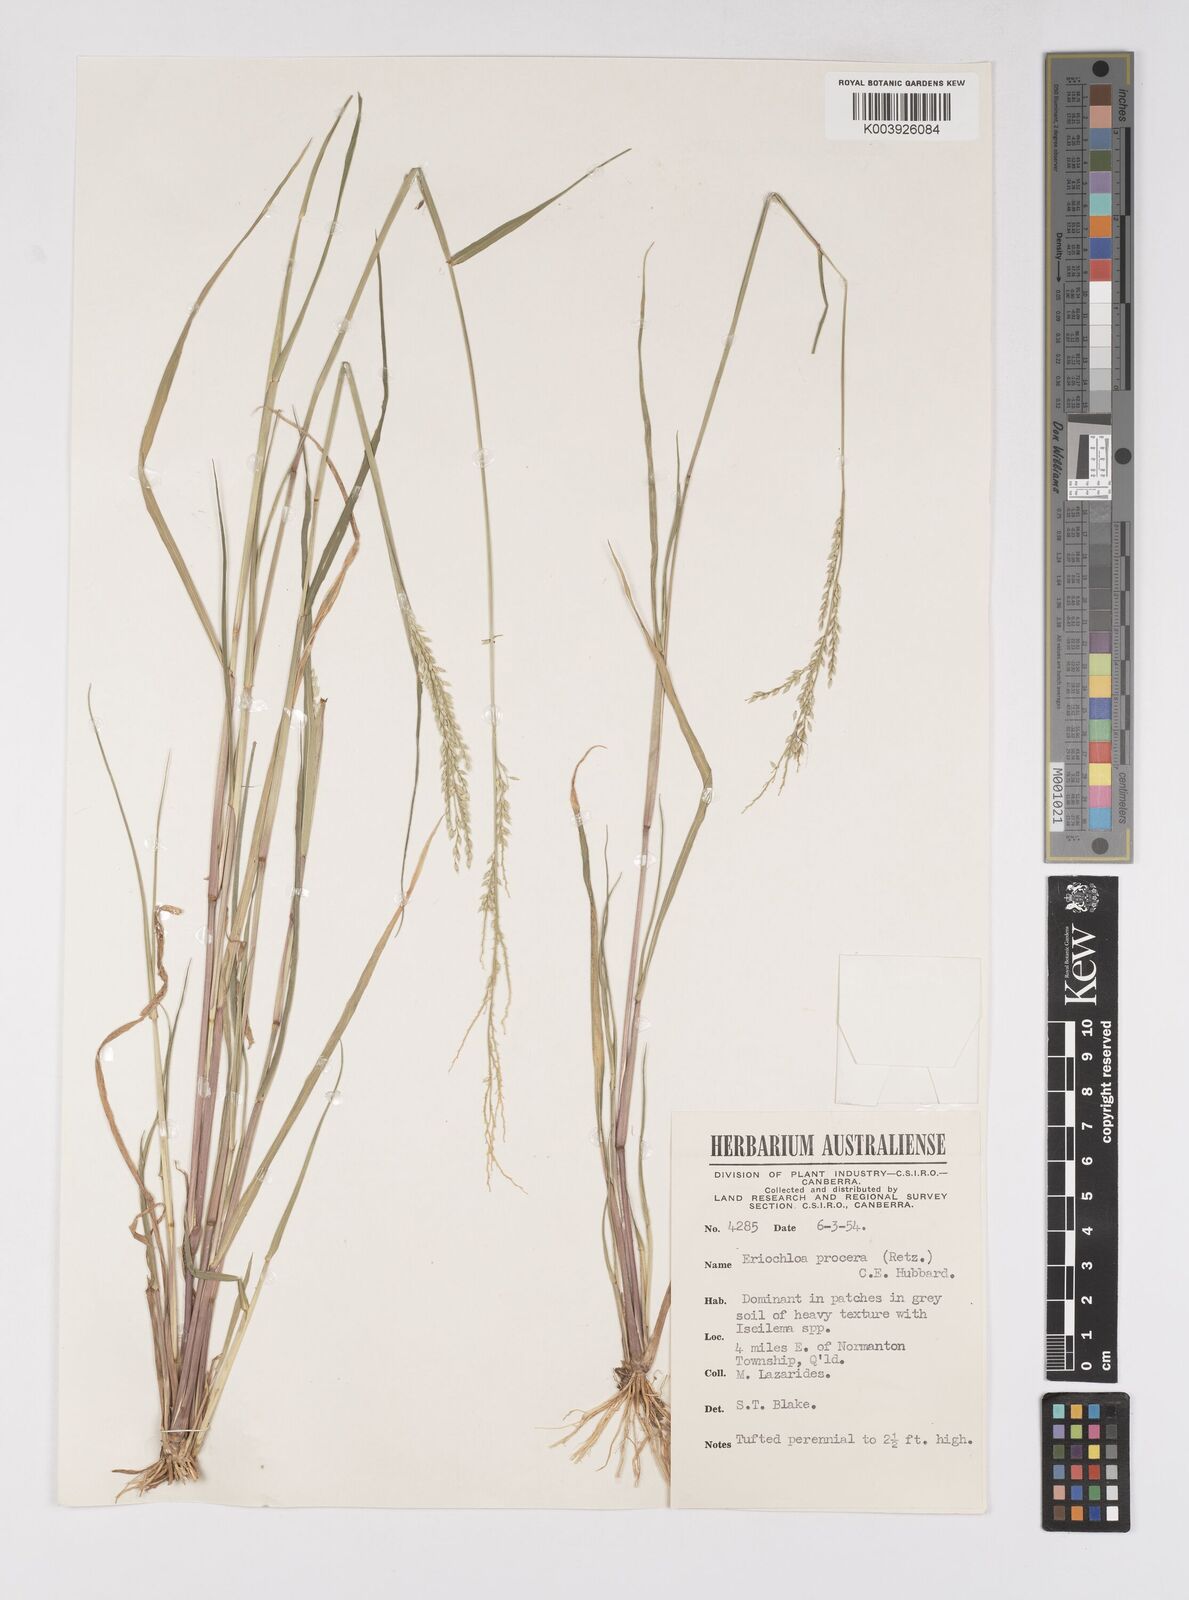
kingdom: Plantae
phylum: Tracheophyta
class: Liliopsida
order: Poales
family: Poaceae
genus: Eriochloa
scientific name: Eriochloa
